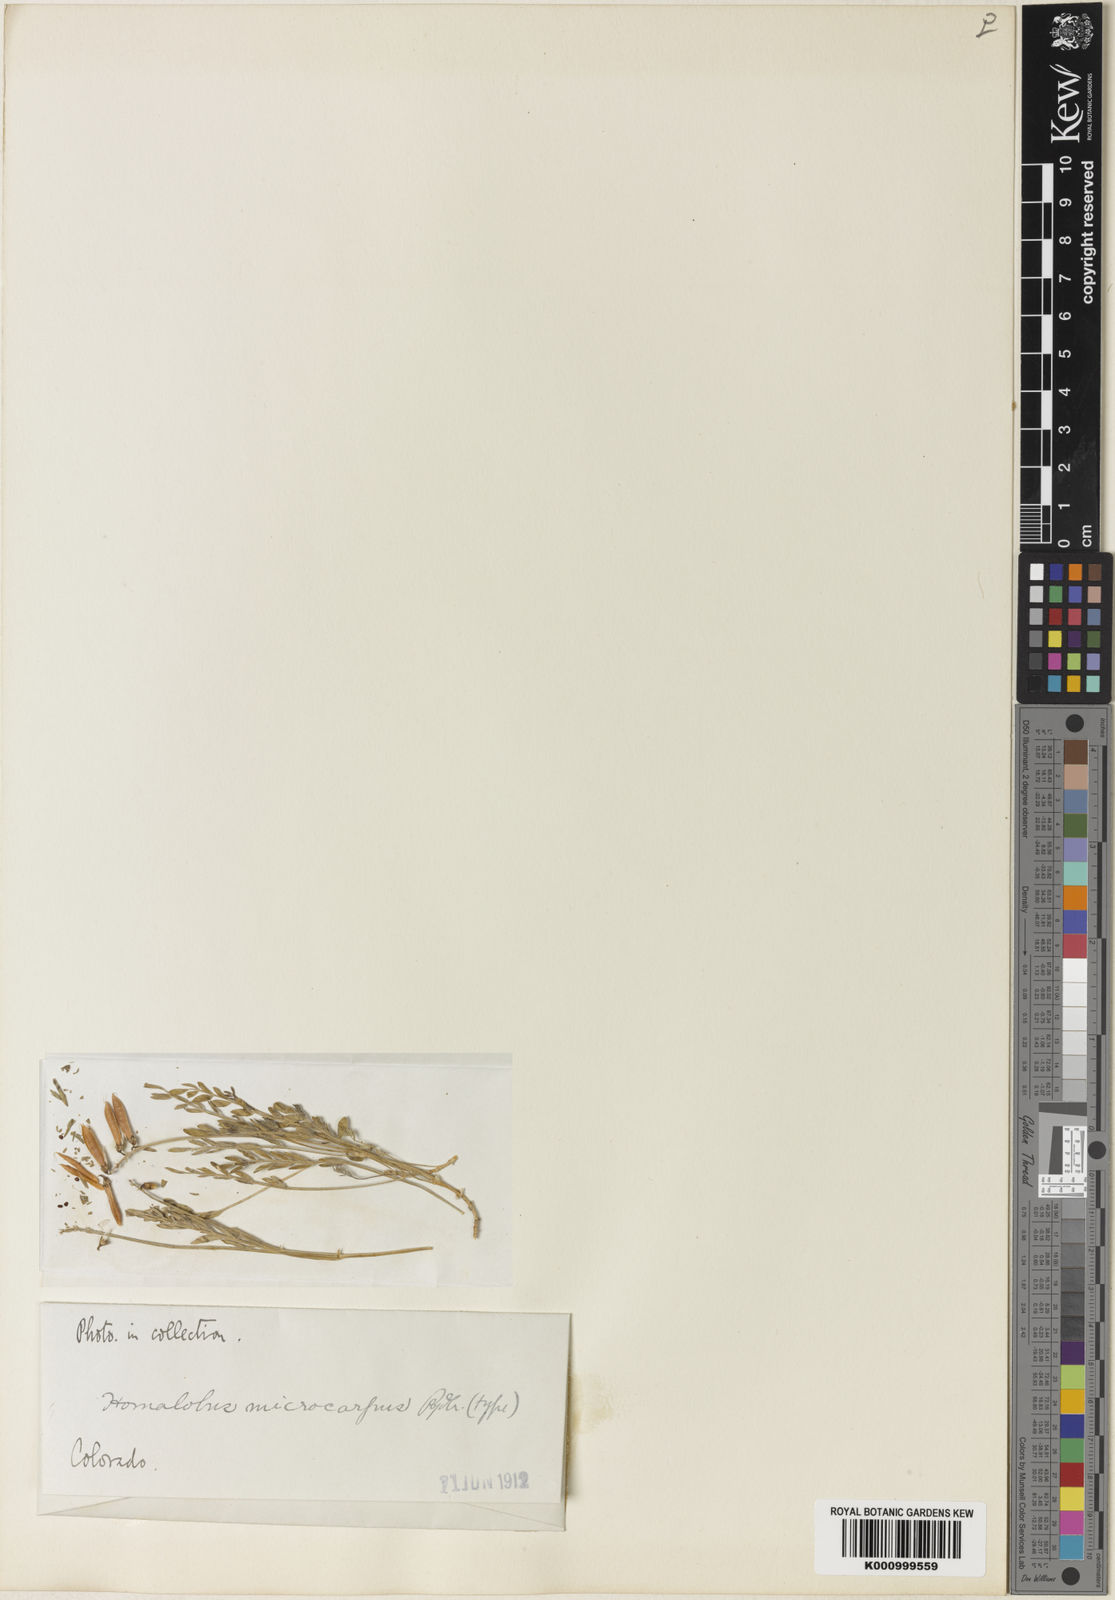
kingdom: Plantae
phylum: Tracheophyta
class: Magnoliopsida
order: Fabales
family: Fabaceae
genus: Astragalus
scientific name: Astragalus
